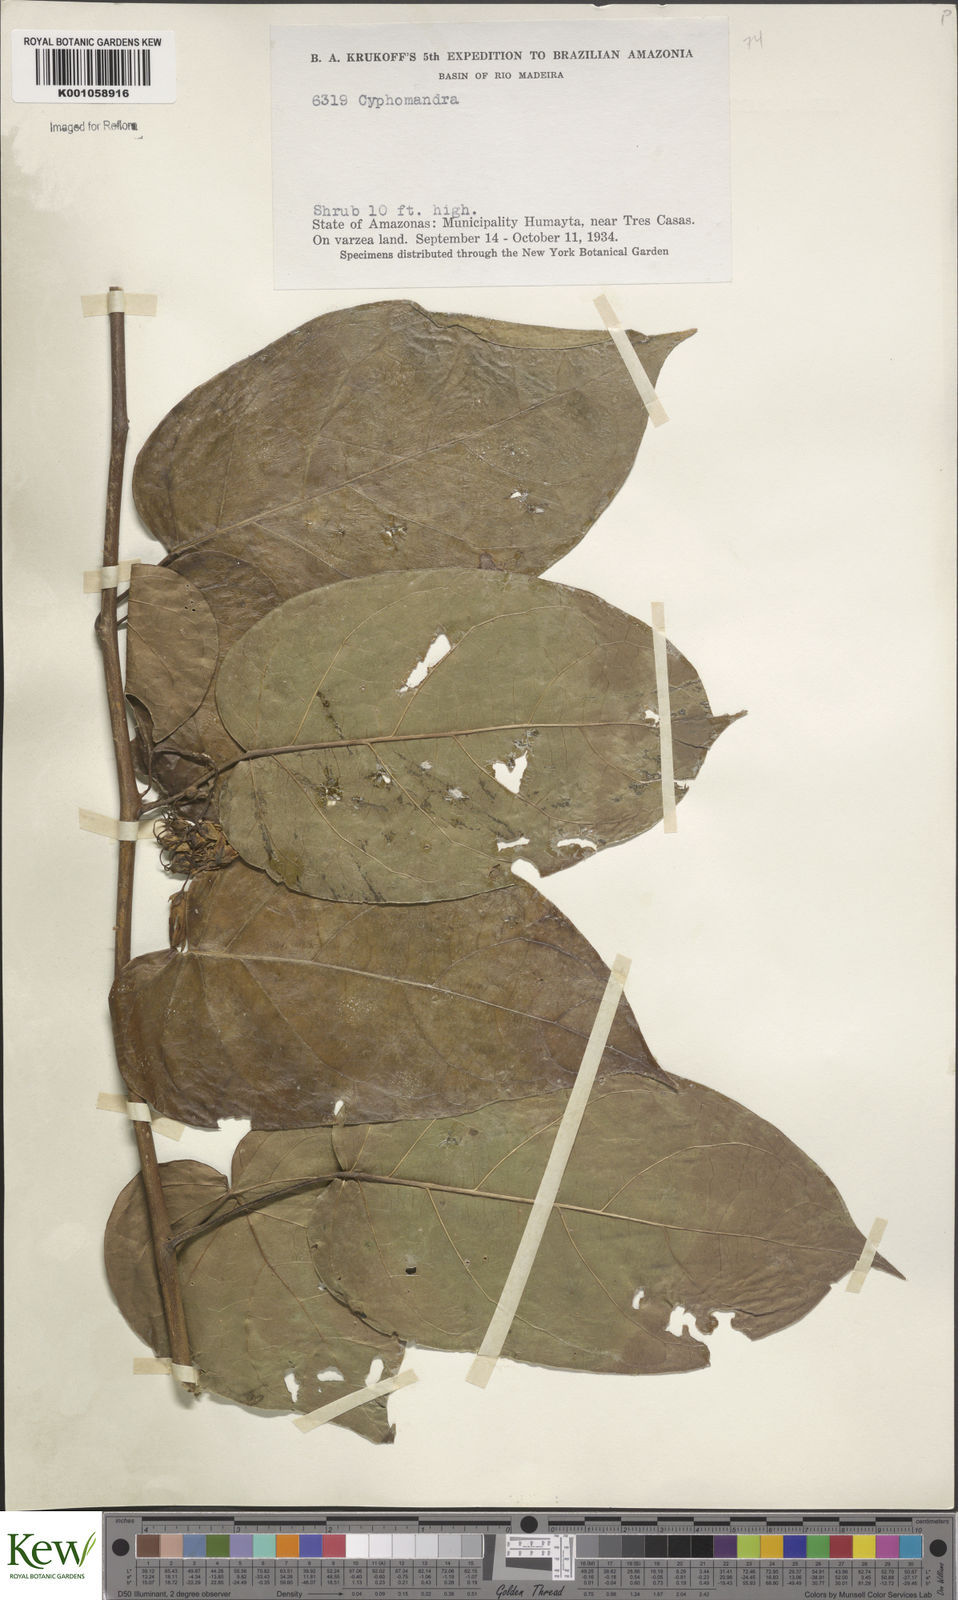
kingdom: Plantae
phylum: Tracheophyta
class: Magnoliopsida
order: Solanales
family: Solanaceae
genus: Solanum
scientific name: Solanum proteanthum
